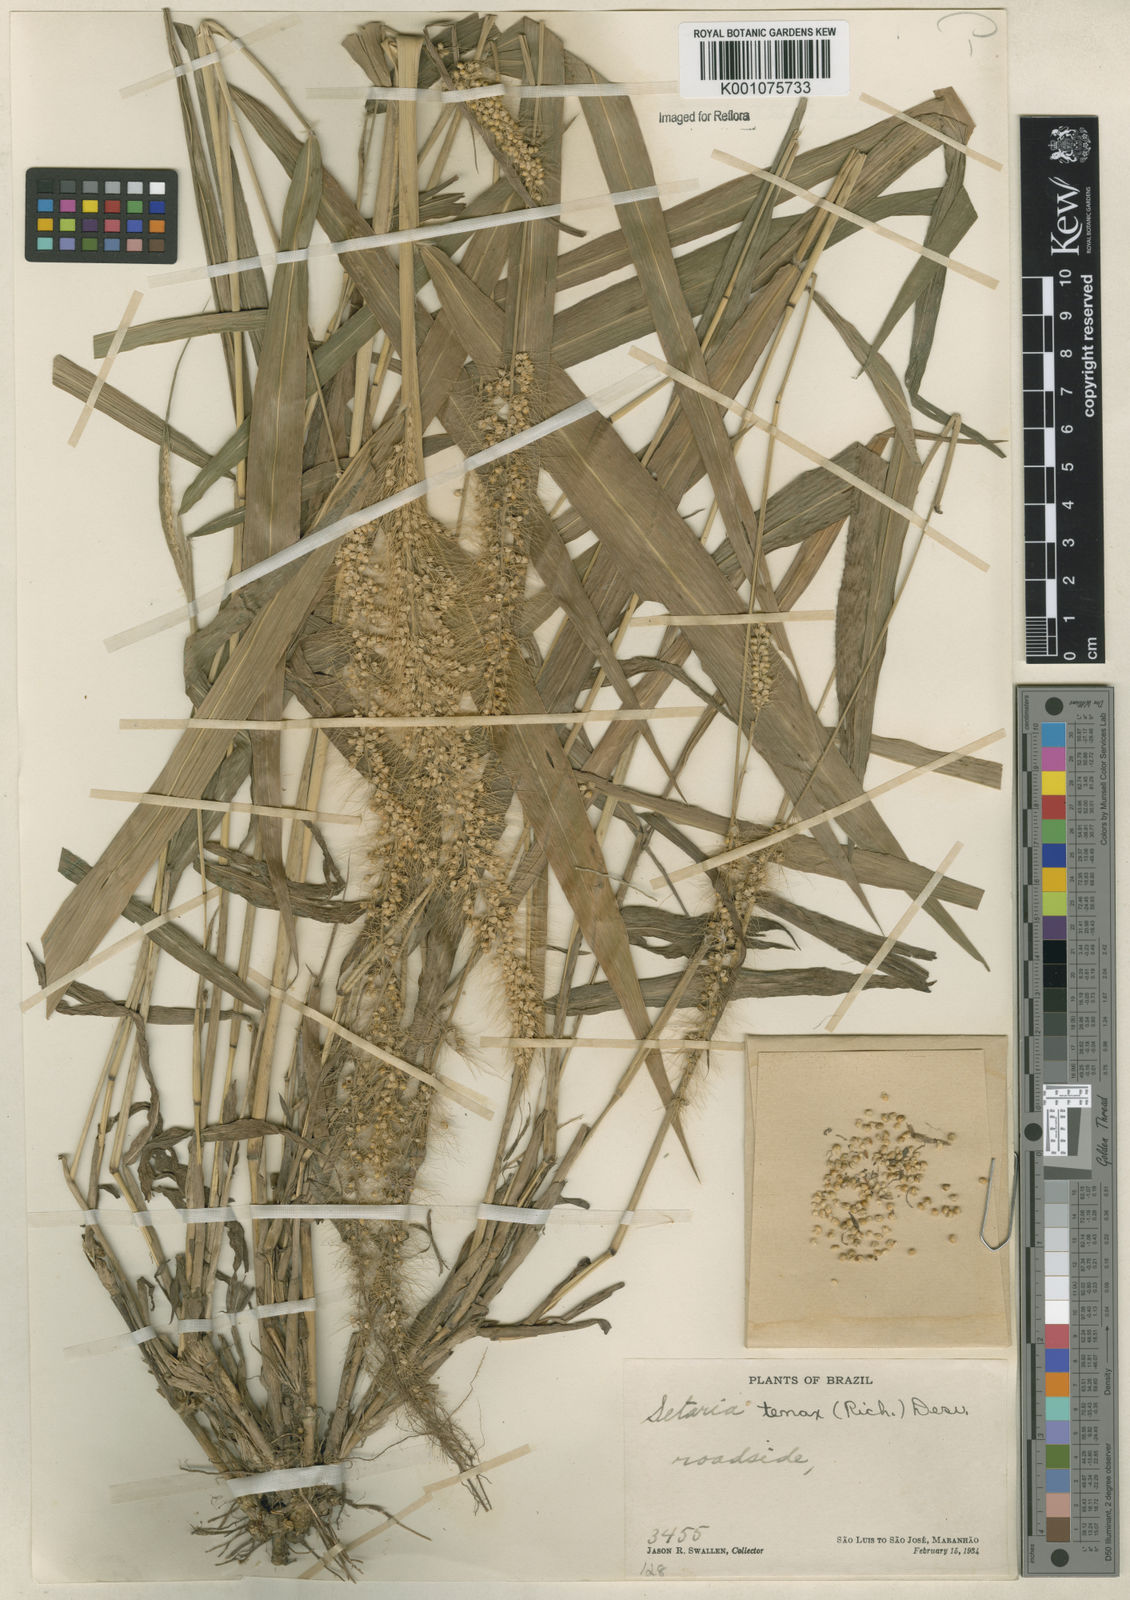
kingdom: Plantae
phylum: Tracheophyta
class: Liliopsida
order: Poales
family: Poaceae
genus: Setaria
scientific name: Setaria tenax
